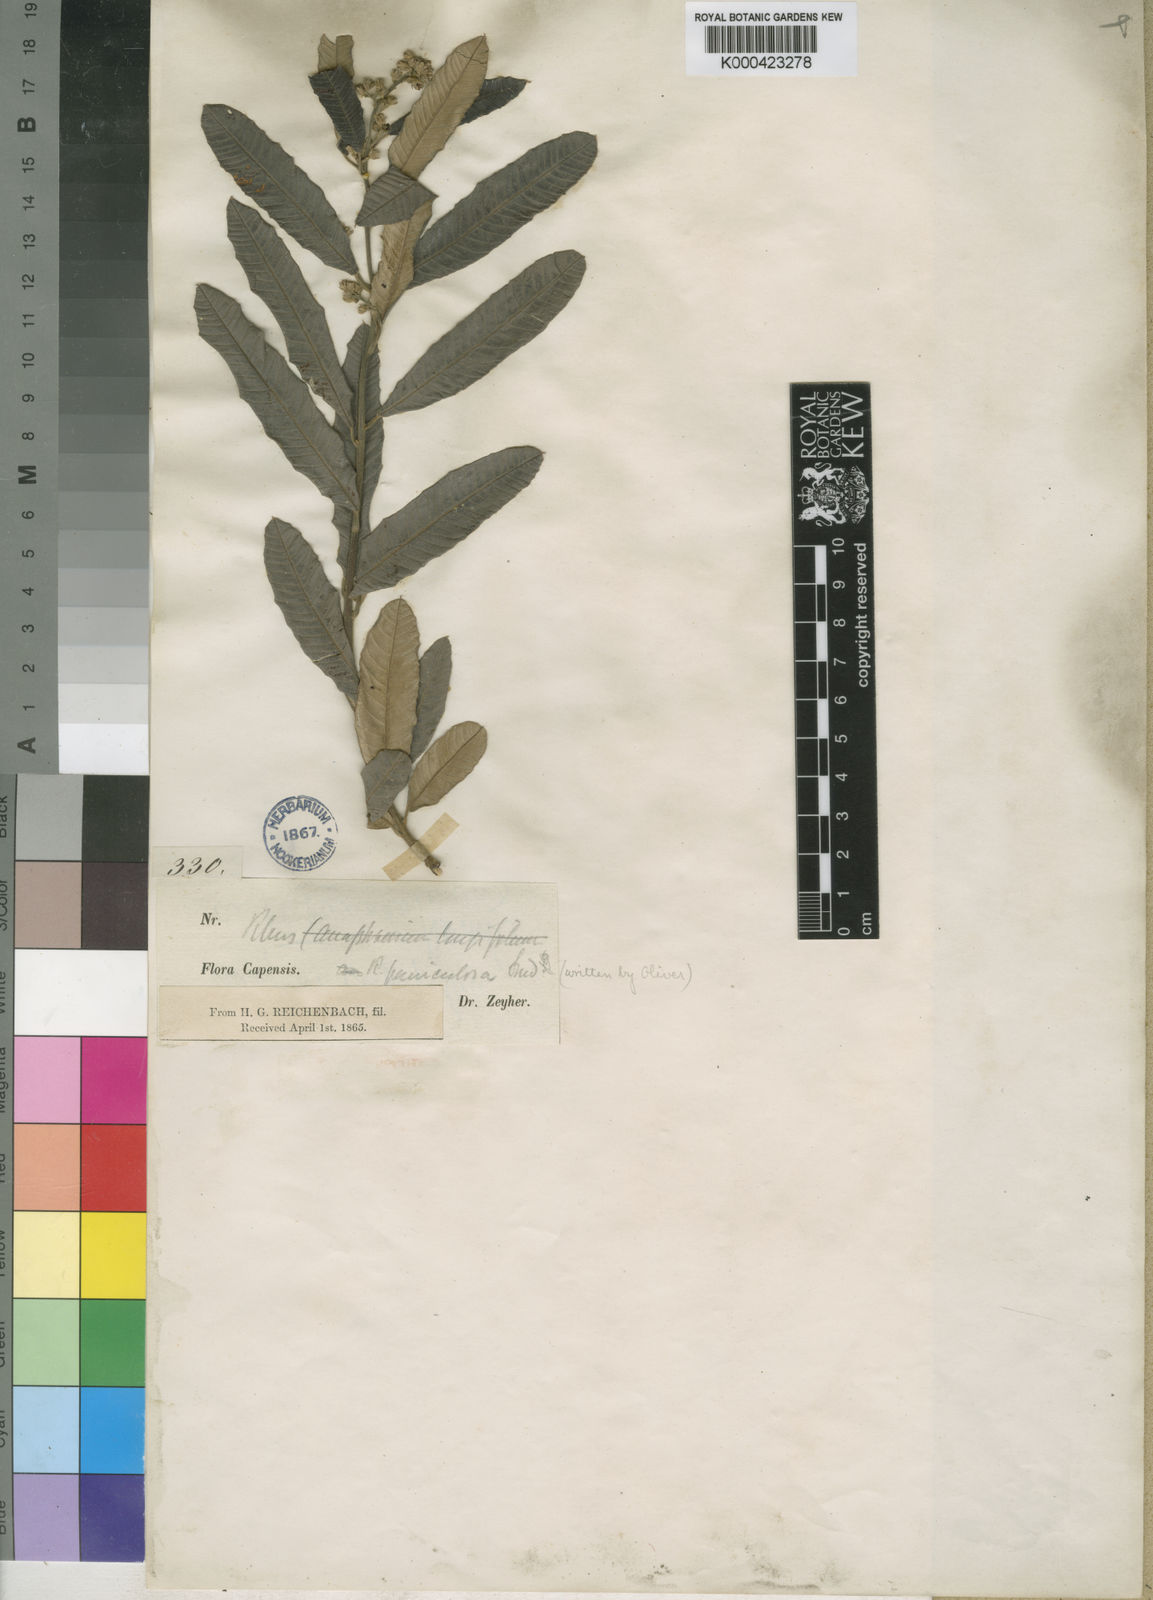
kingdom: Plantae
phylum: Tracheophyta
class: Magnoliopsida
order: Sapindales
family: Anacardiaceae
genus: Ozoroa
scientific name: Ozoroa paniculosa
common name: Bushveld ozoroa
